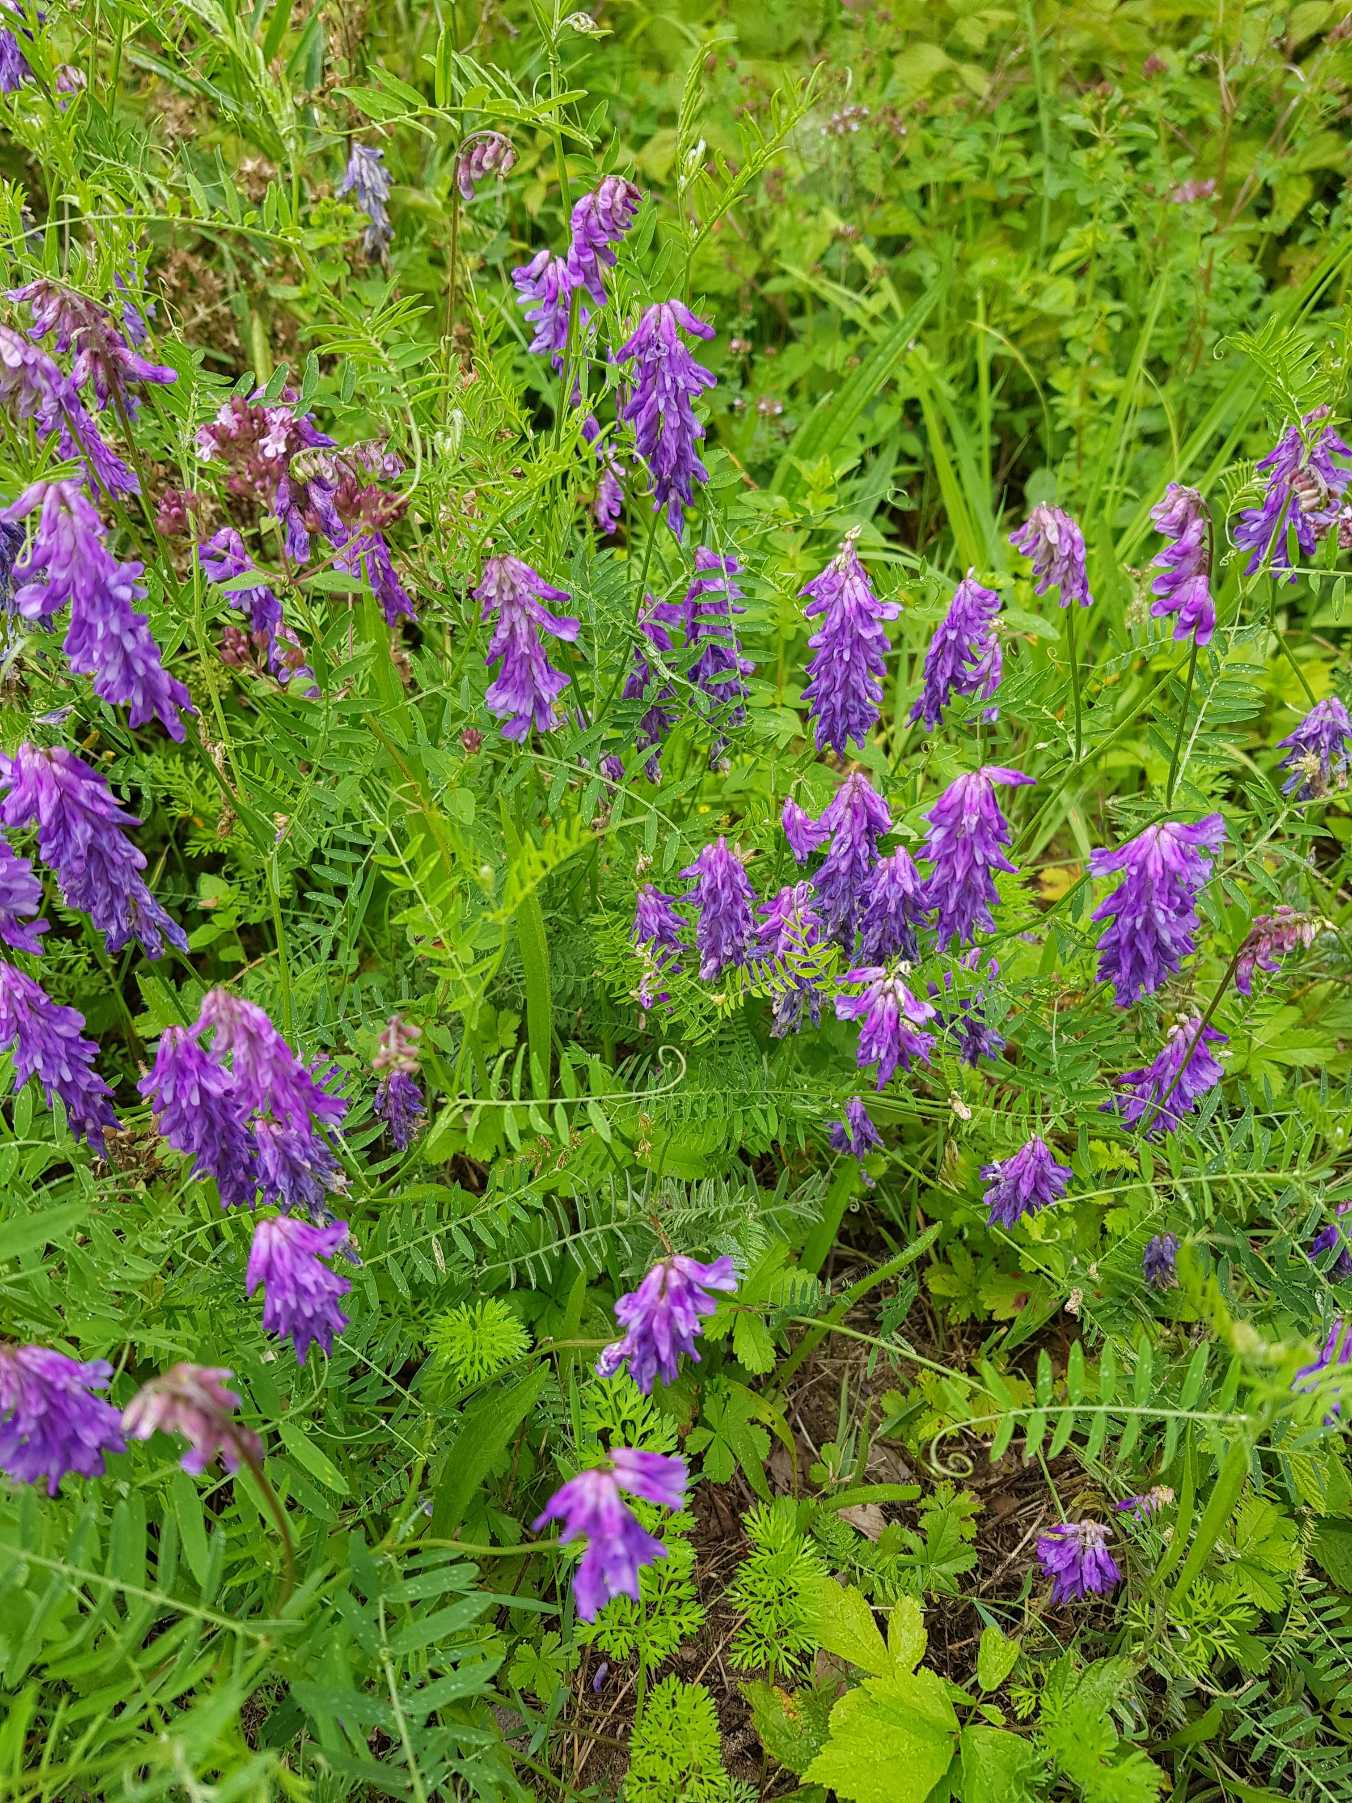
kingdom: Plantae
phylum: Tracheophyta
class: Magnoliopsida
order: Fabales
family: Fabaceae
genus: Vicia
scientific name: Vicia cracca
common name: Muse-vikke
